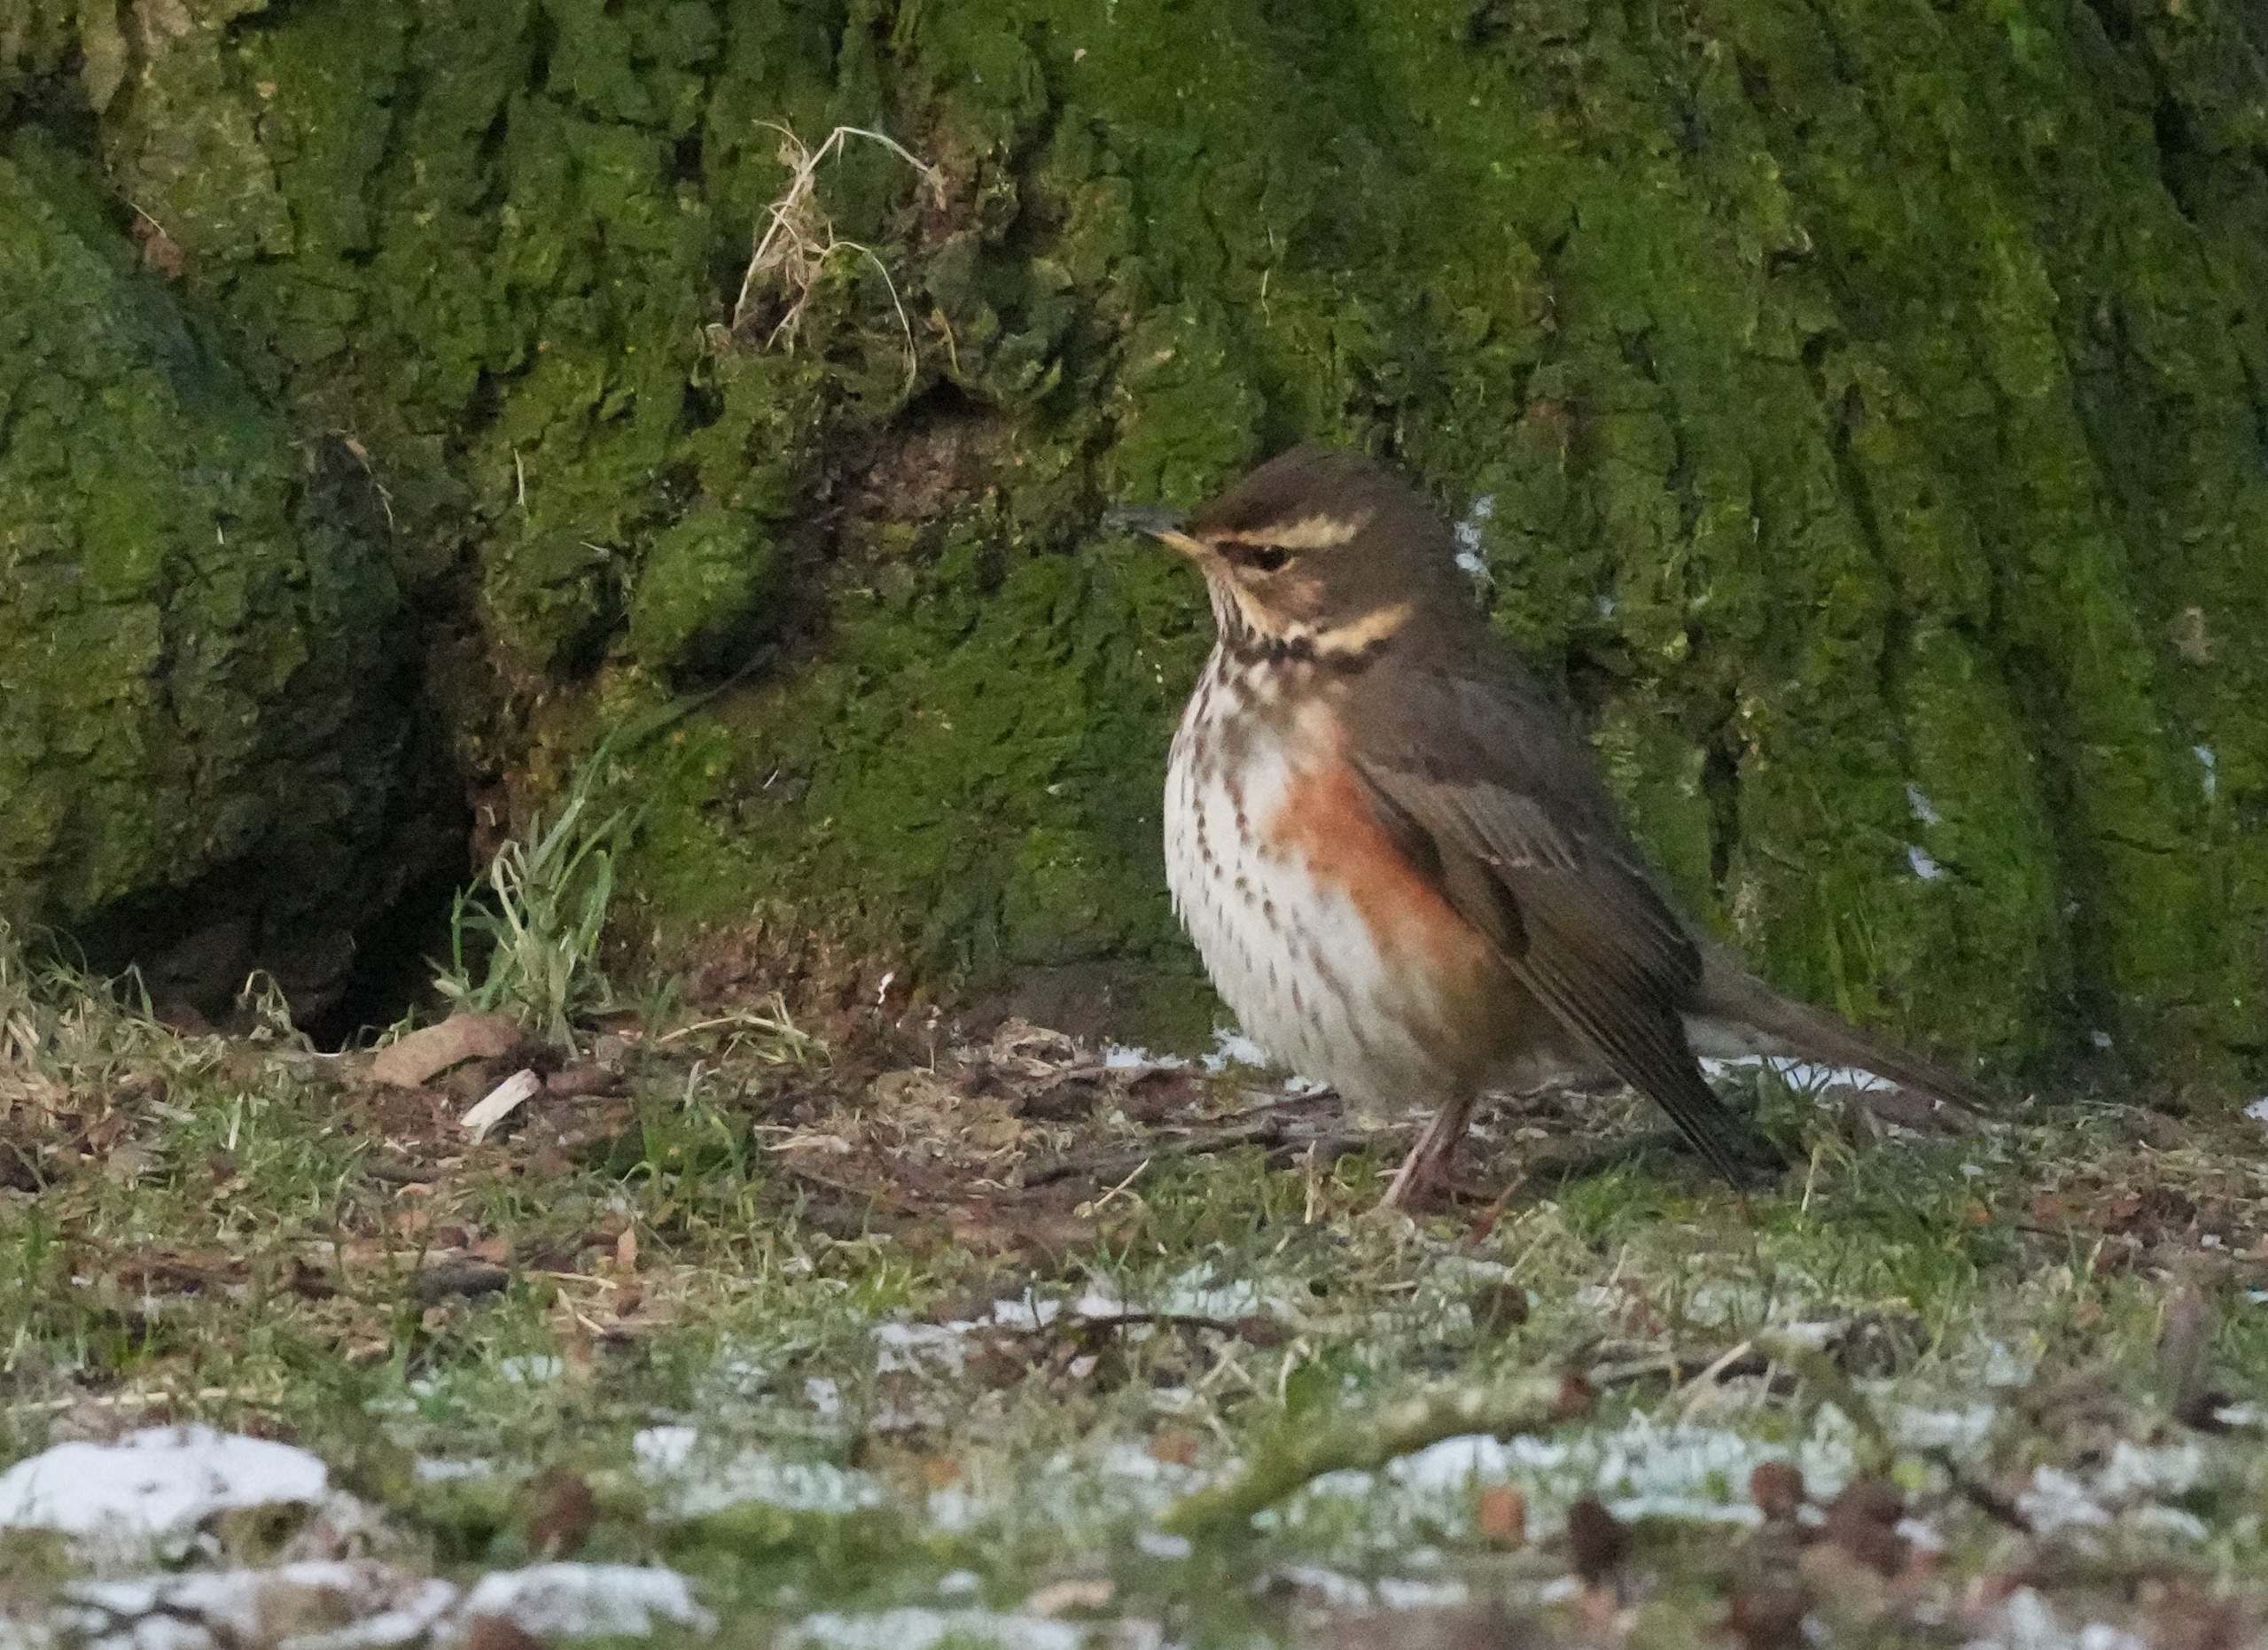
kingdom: Animalia
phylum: Chordata
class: Aves
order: Passeriformes
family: Turdidae
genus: Turdus
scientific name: Turdus iliacus
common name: Vindrossel
